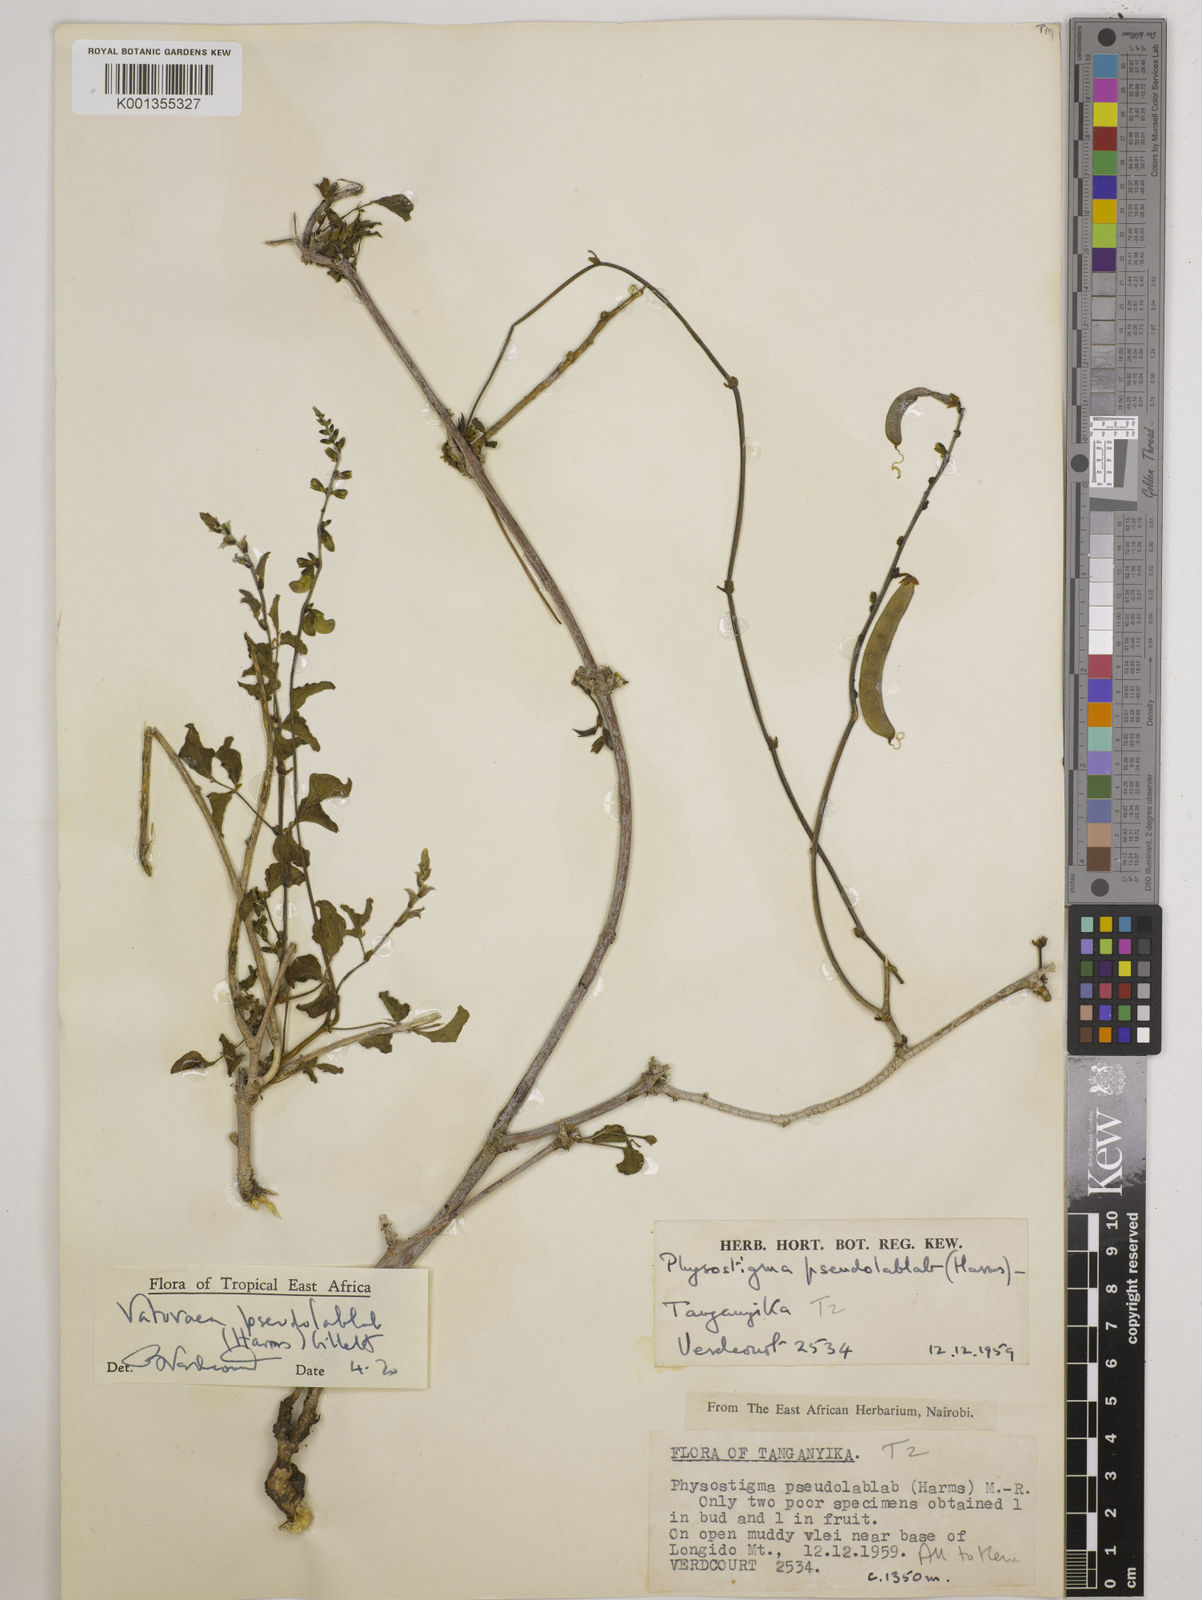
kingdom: Plantae
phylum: Tracheophyta
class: Magnoliopsida
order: Fabales
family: Fabaceae
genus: Vatovaea
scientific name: Vatovaea pseudolablab
